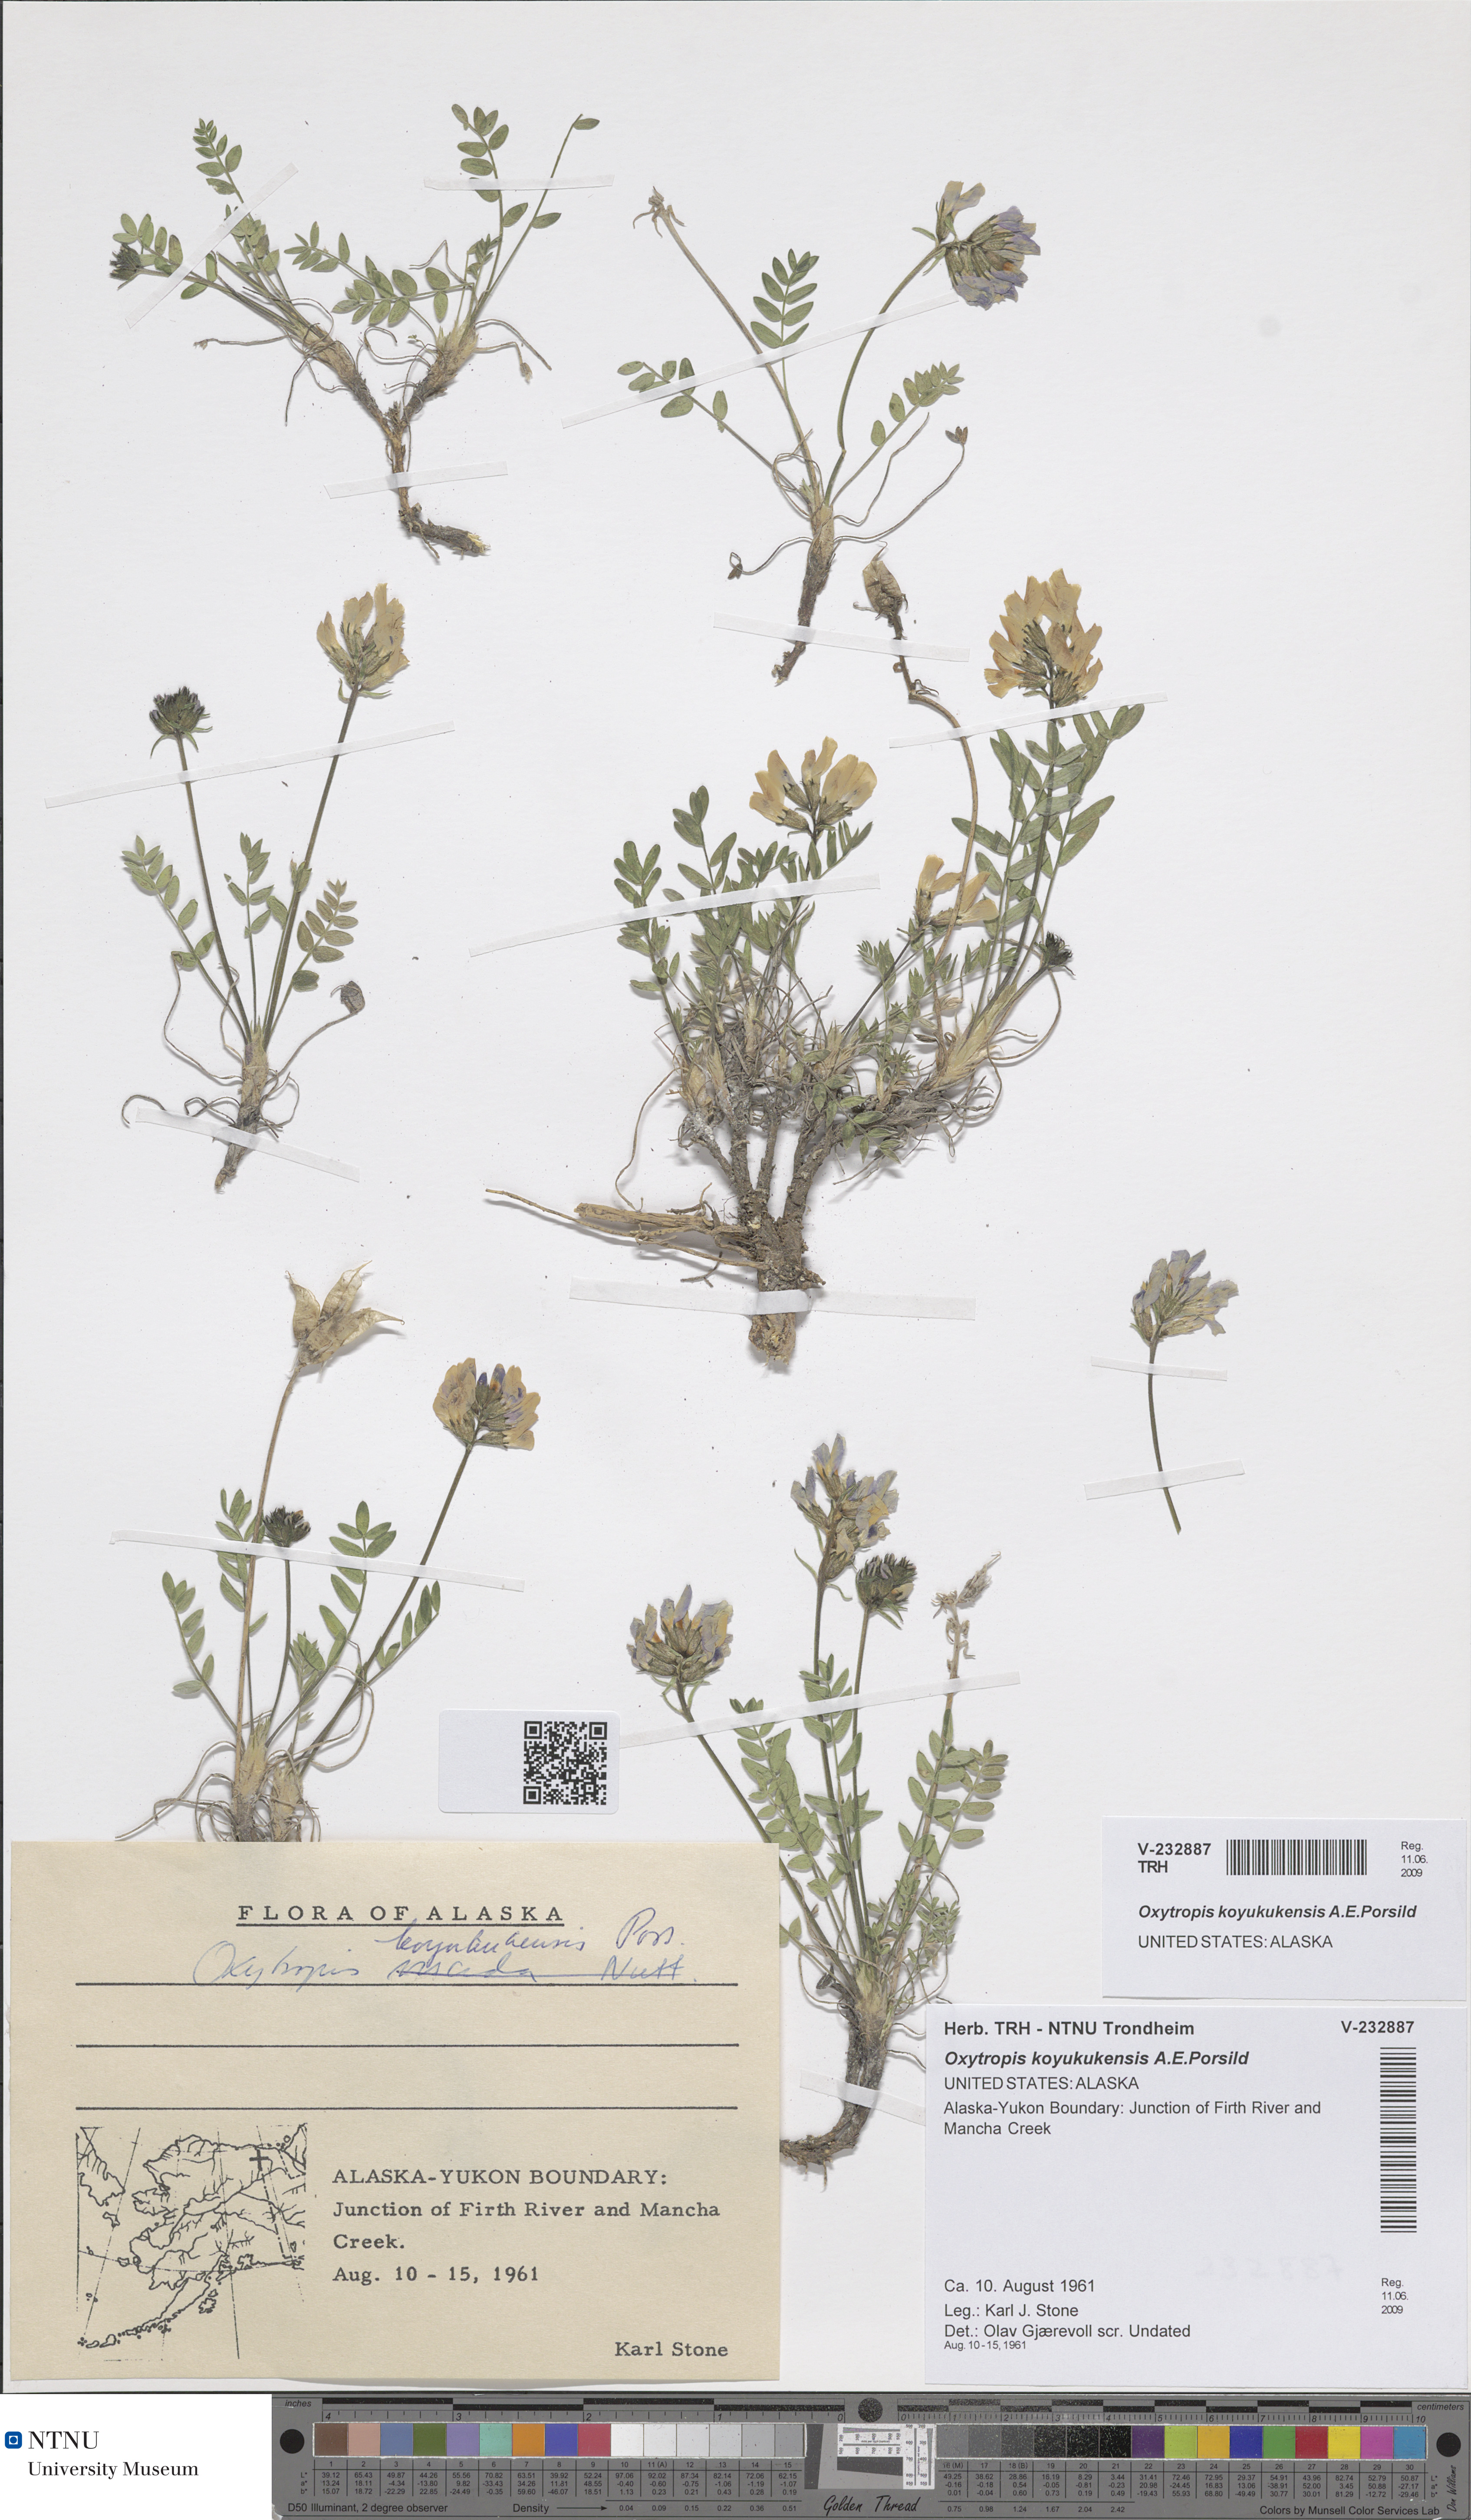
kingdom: Plantae
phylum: Tracheophyta
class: Magnoliopsida
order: Fabales
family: Fabaceae
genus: Oxytropis
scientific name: Oxytropis arctica
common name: Arctic locoweed
